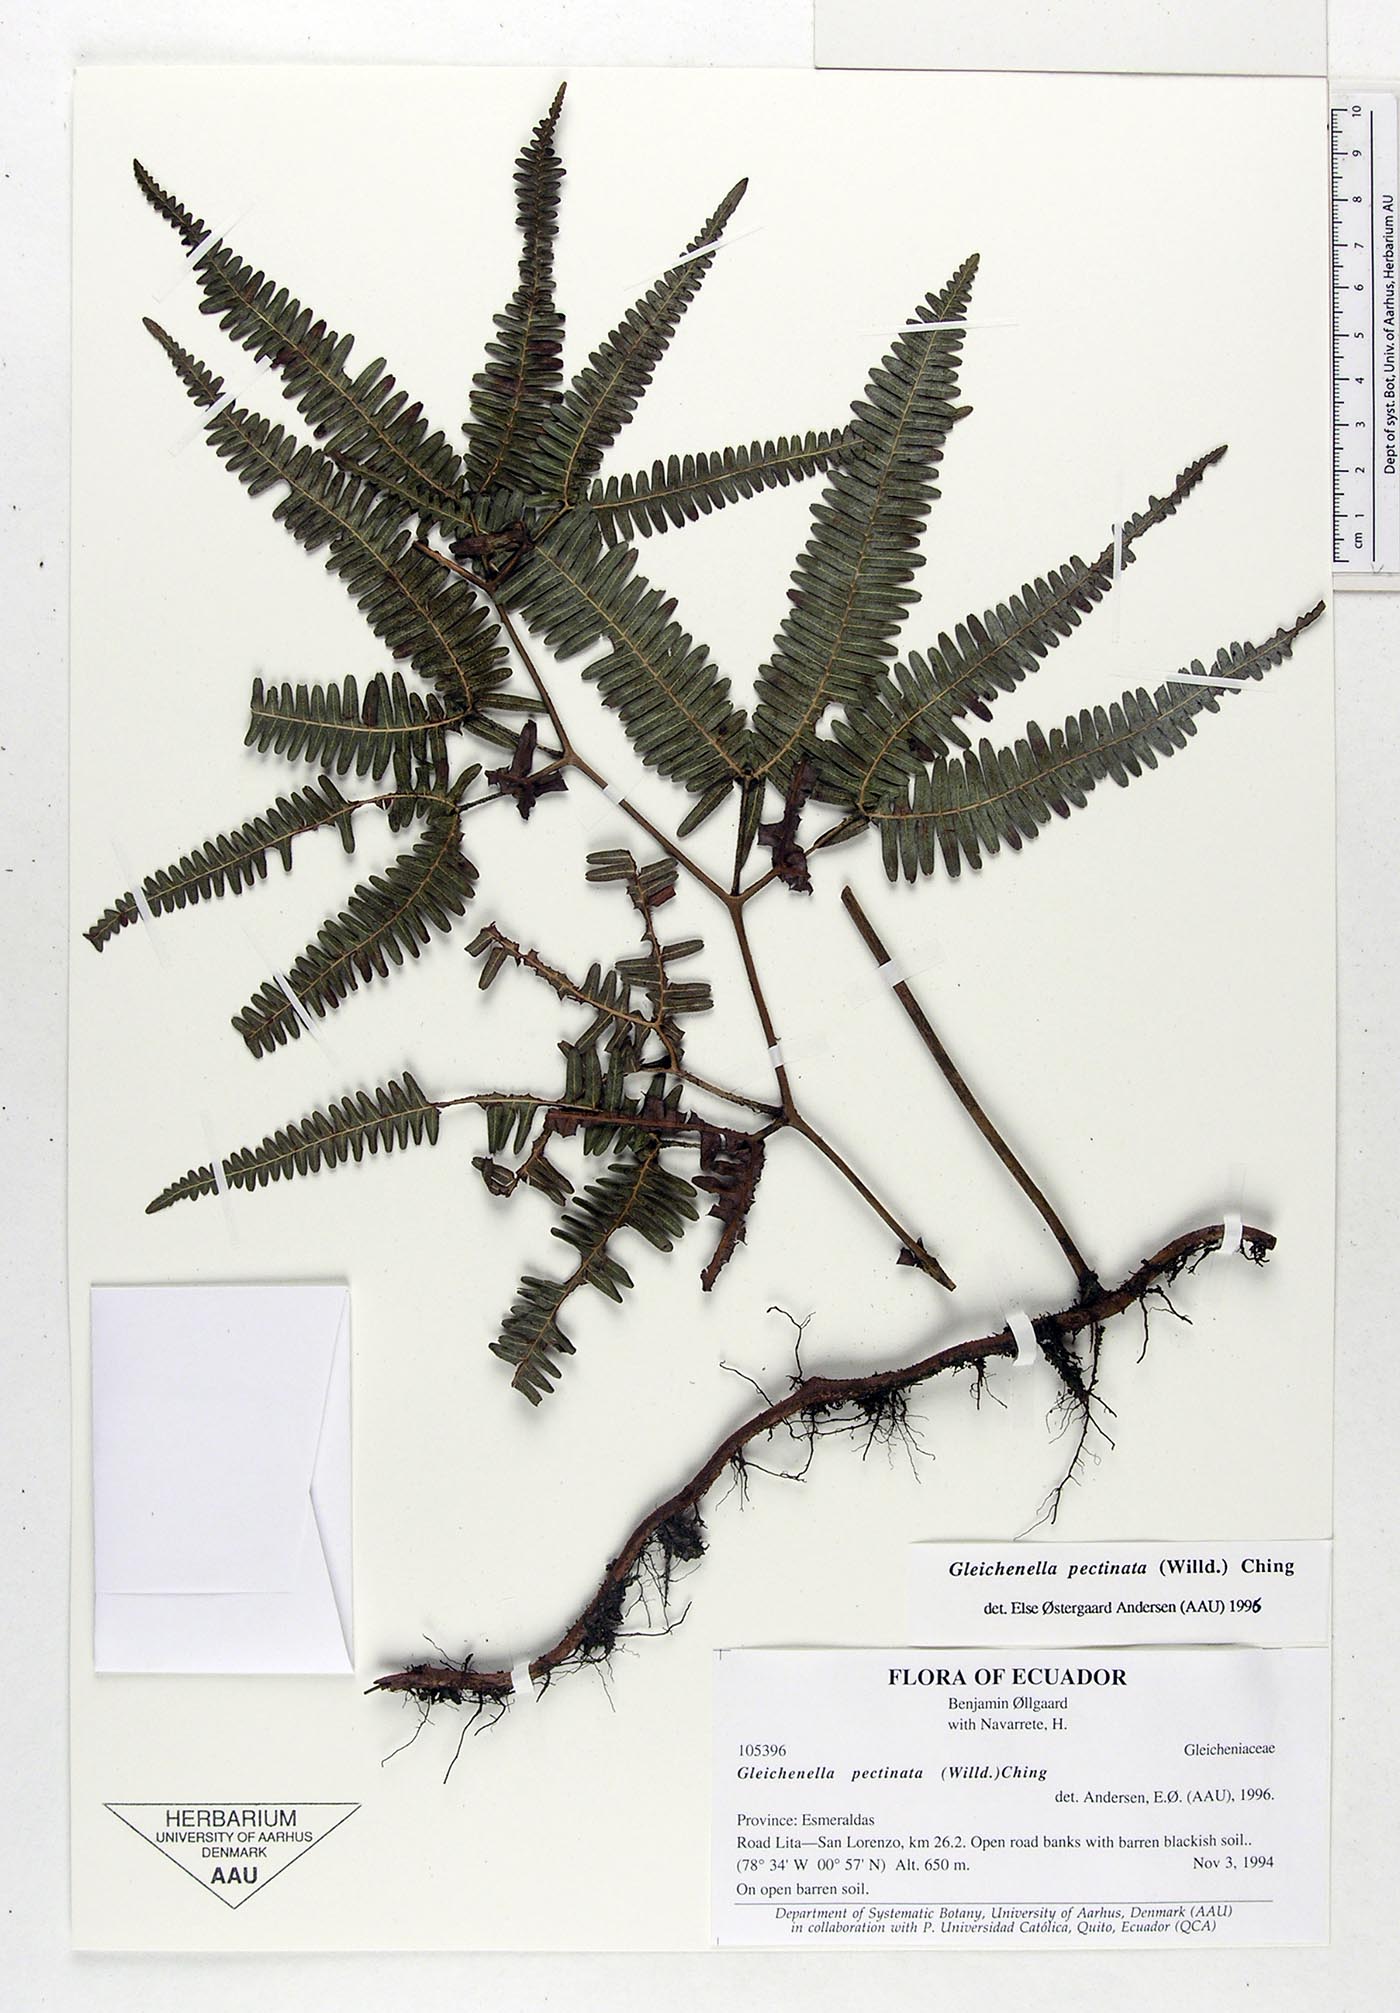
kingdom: Plantae
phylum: Tracheophyta
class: Polypodiopsida
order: Gleicheniales
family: Gleicheniaceae
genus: Gleichenella
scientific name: Gleichenella pectinata
